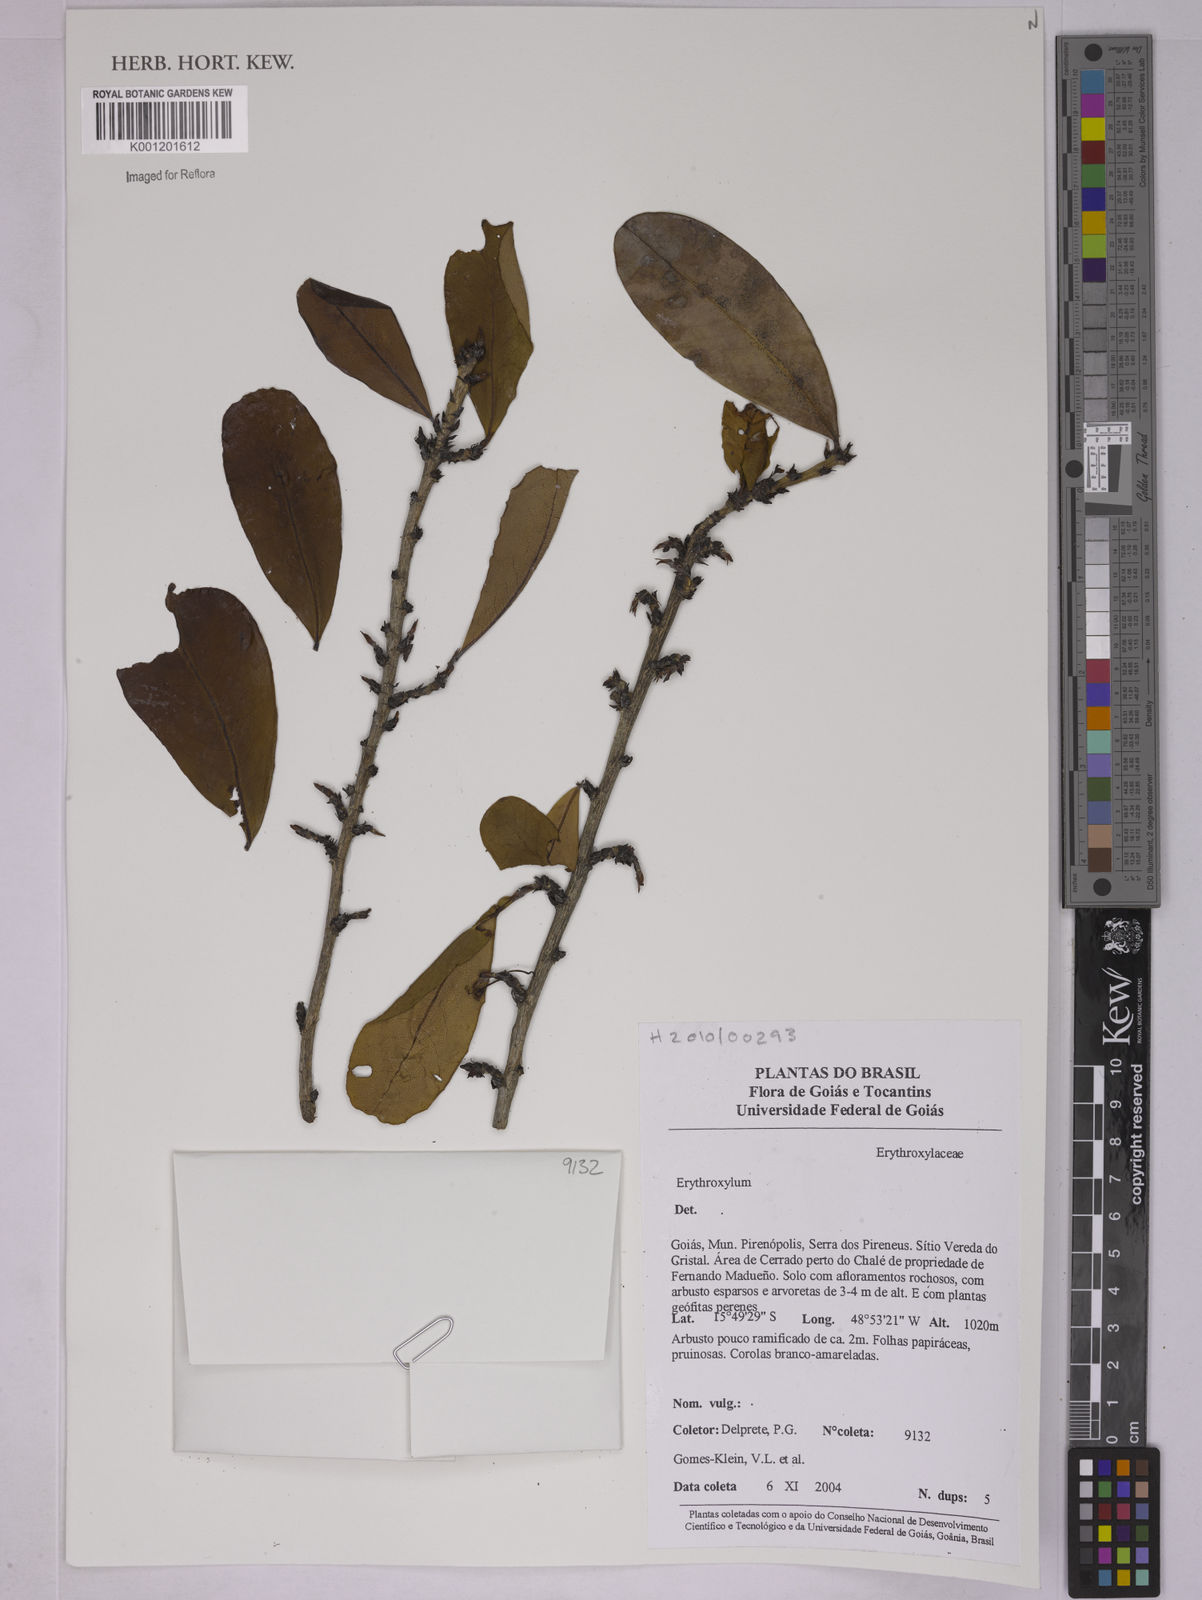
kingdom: Plantae
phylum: Tracheophyta
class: Magnoliopsida
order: Malpighiales
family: Erythroxylaceae
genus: Erythroxylum
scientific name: Erythroxylum
